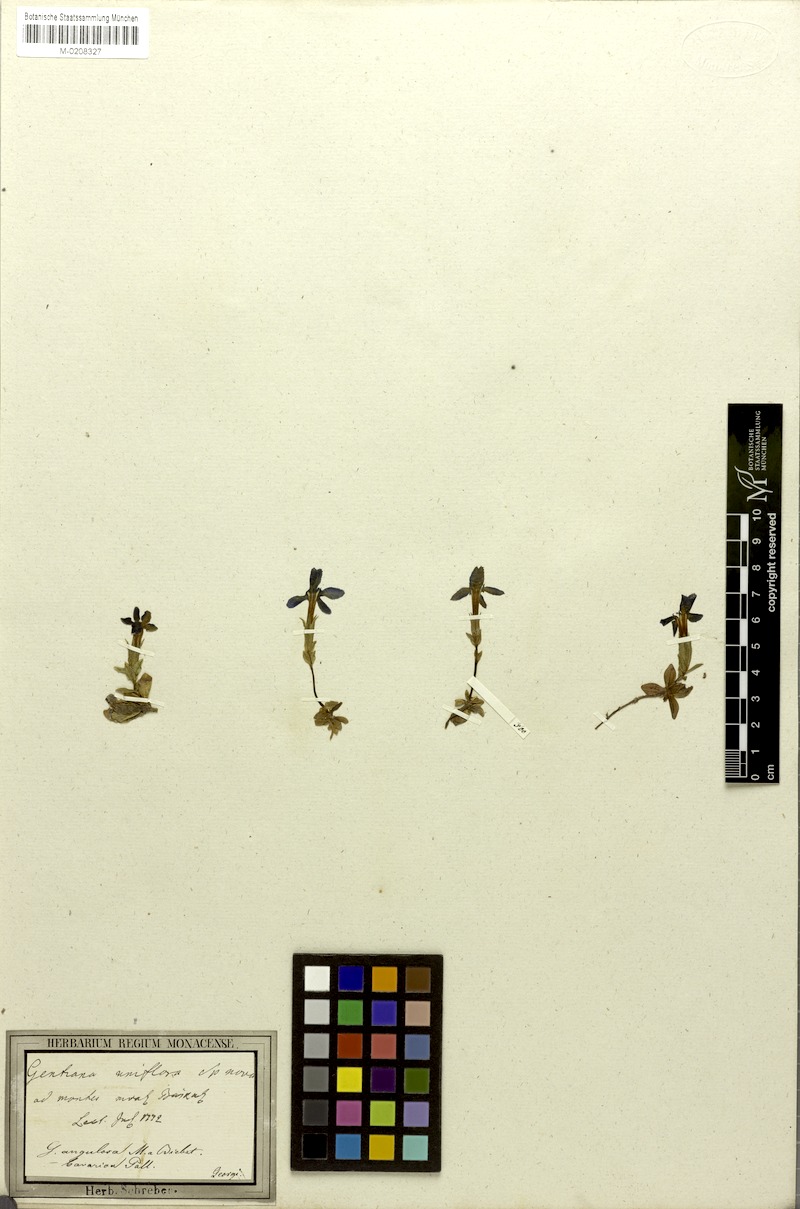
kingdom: Plantae
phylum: Tracheophyta
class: Magnoliopsida
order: Gentianales
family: Gentianaceae
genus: Gentiana
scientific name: Gentiana uniflora
